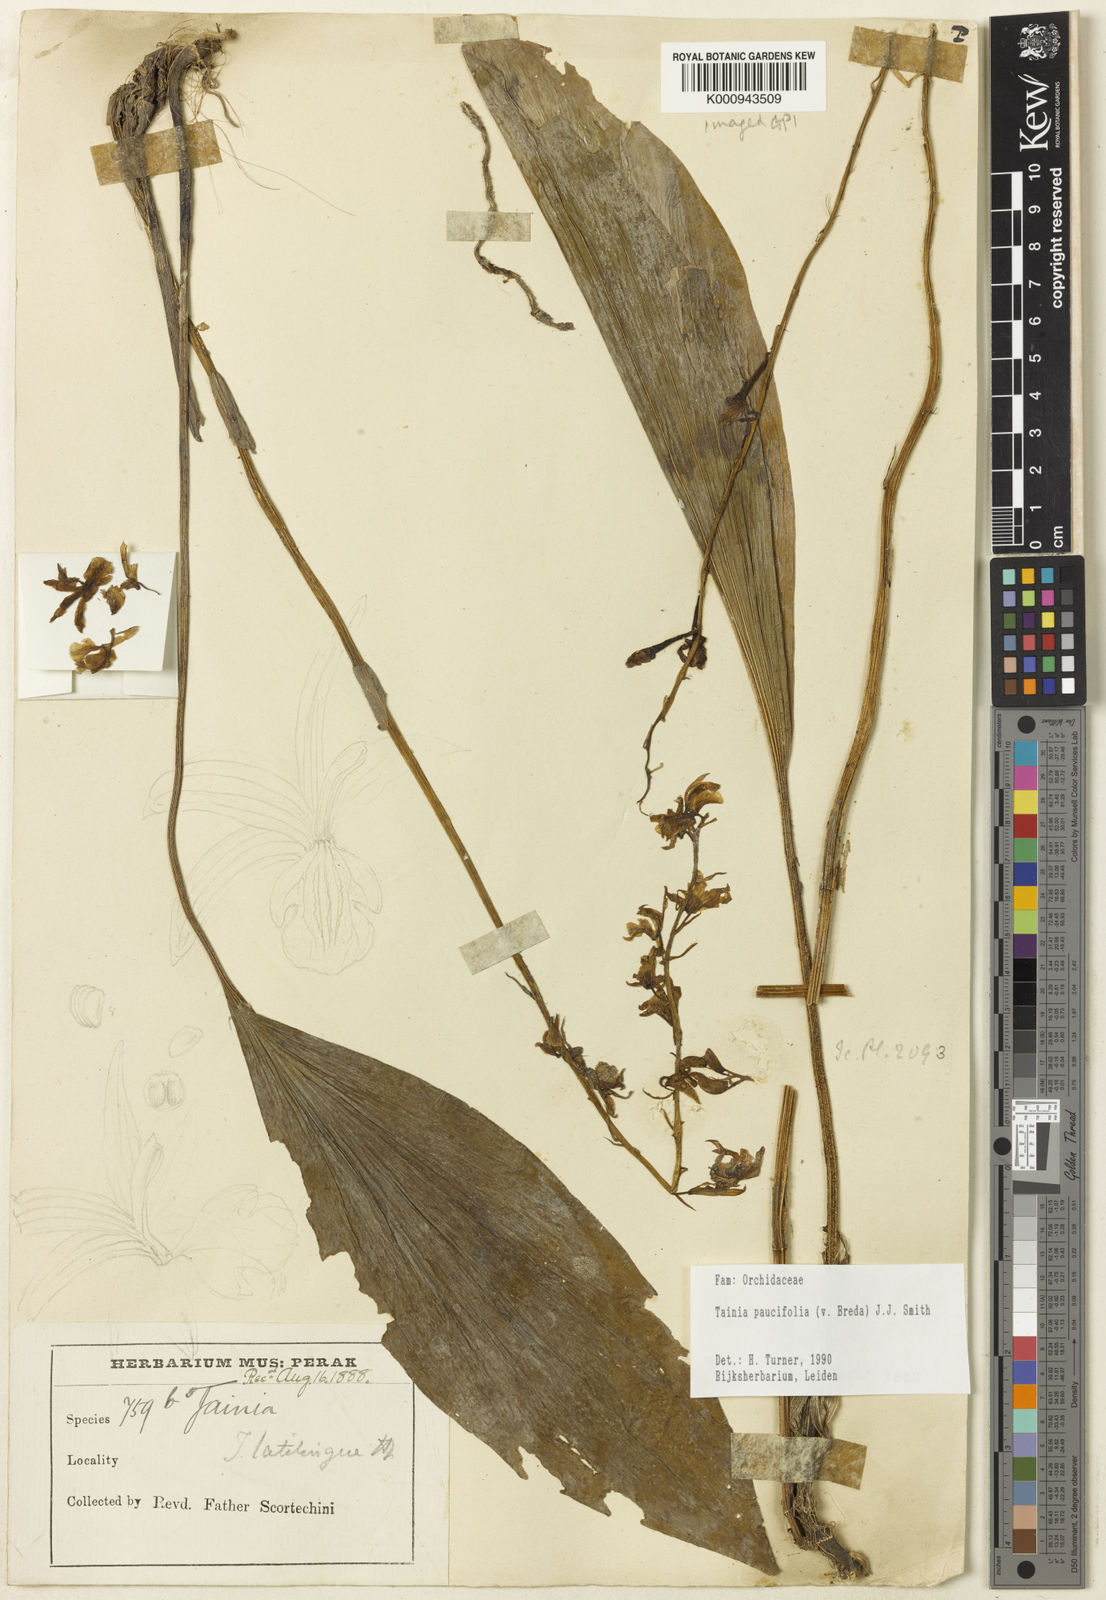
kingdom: Plantae
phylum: Tracheophyta
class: Liliopsida
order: Asparagales
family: Orchidaceae
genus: Tainia
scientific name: Tainia paucifolia
